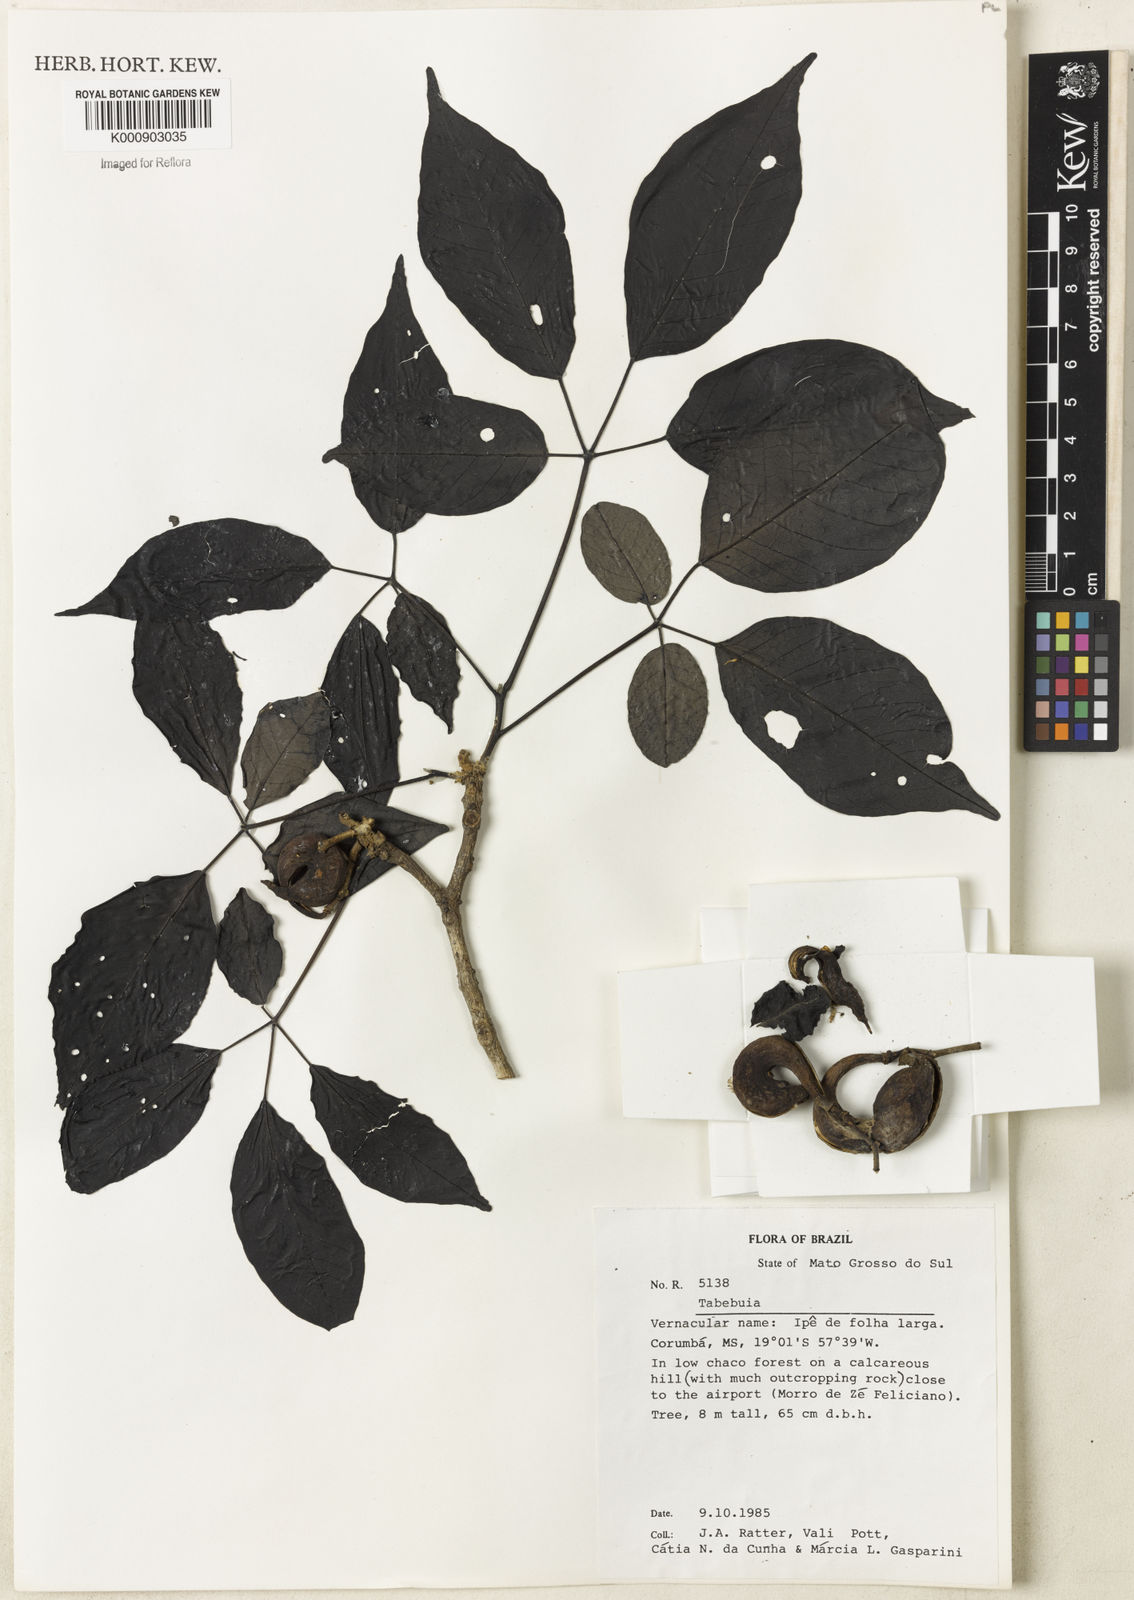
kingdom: Plantae
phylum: Tracheophyta
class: Magnoliopsida
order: Lamiales
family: Bignoniaceae
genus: Tabebuia
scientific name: Tabebuia
